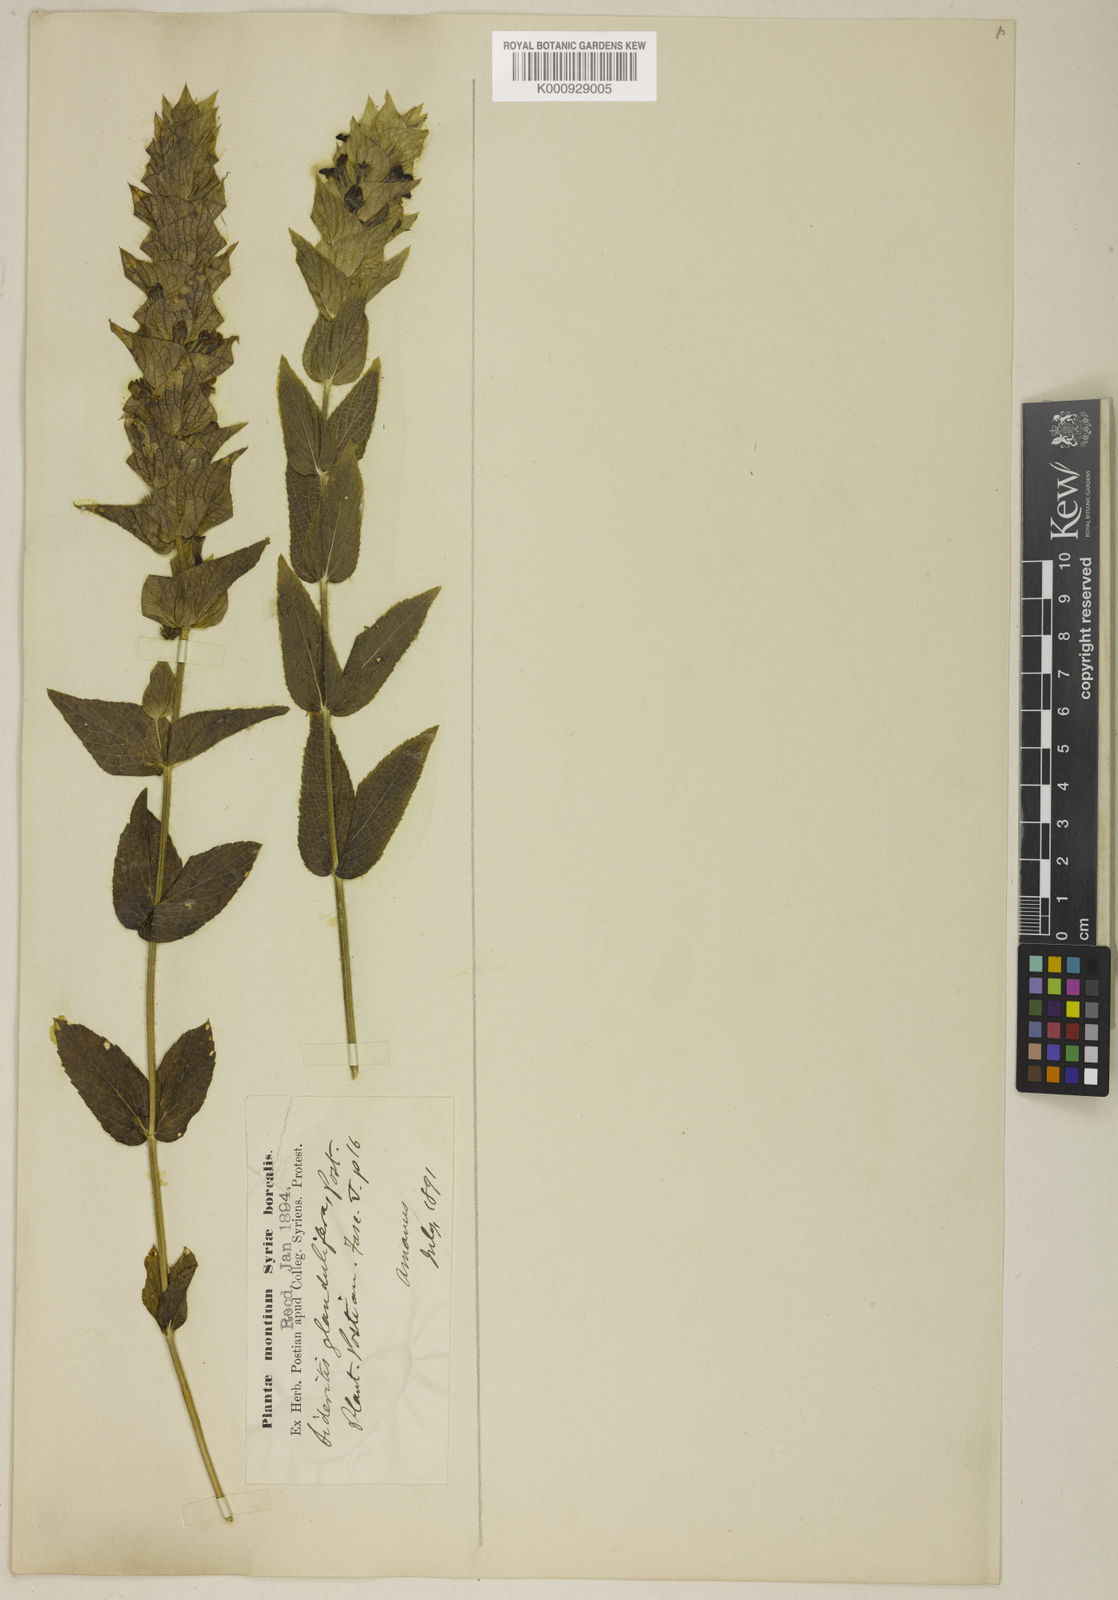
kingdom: Plantae
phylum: Tracheophyta
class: Magnoliopsida
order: Lamiales
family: Lamiaceae
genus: Sideritis
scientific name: Sideritis perfoliata
